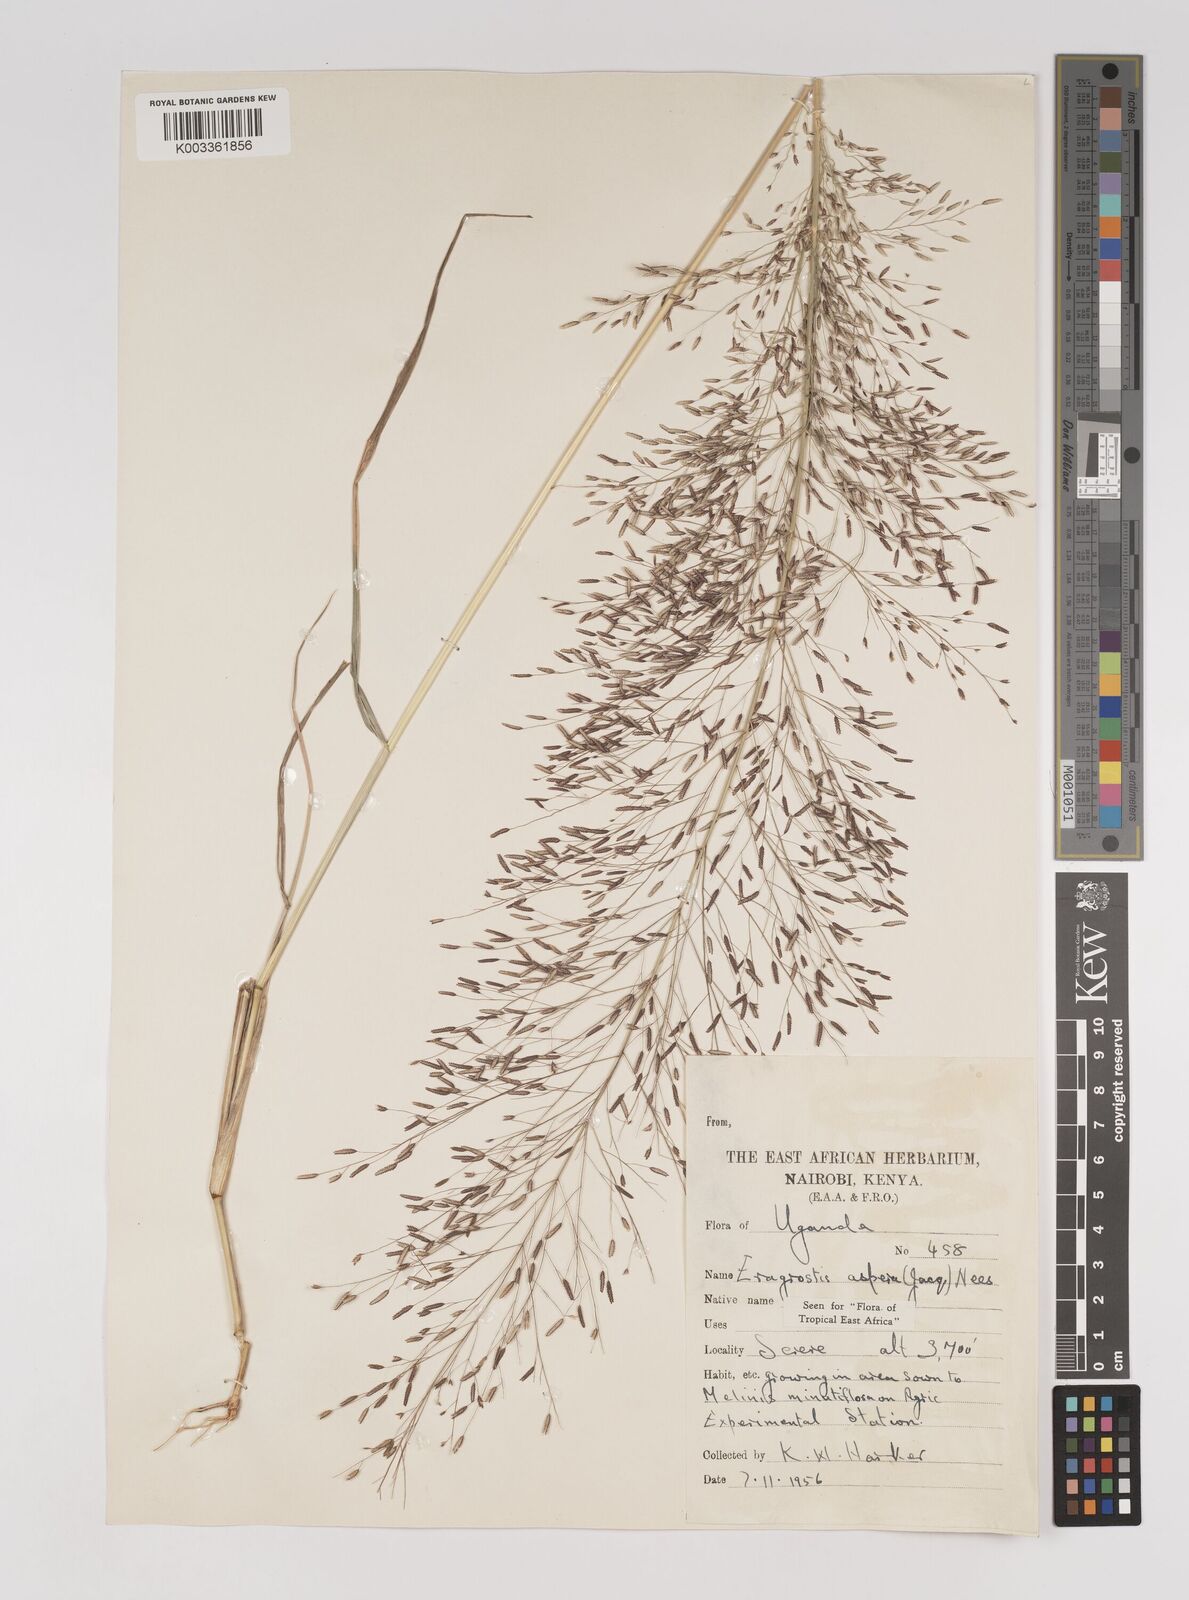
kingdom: Plantae
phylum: Tracheophyta
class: Liliopsida
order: Poales
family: Poaceae
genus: Eragrostis
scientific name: Eragrostis aspera
